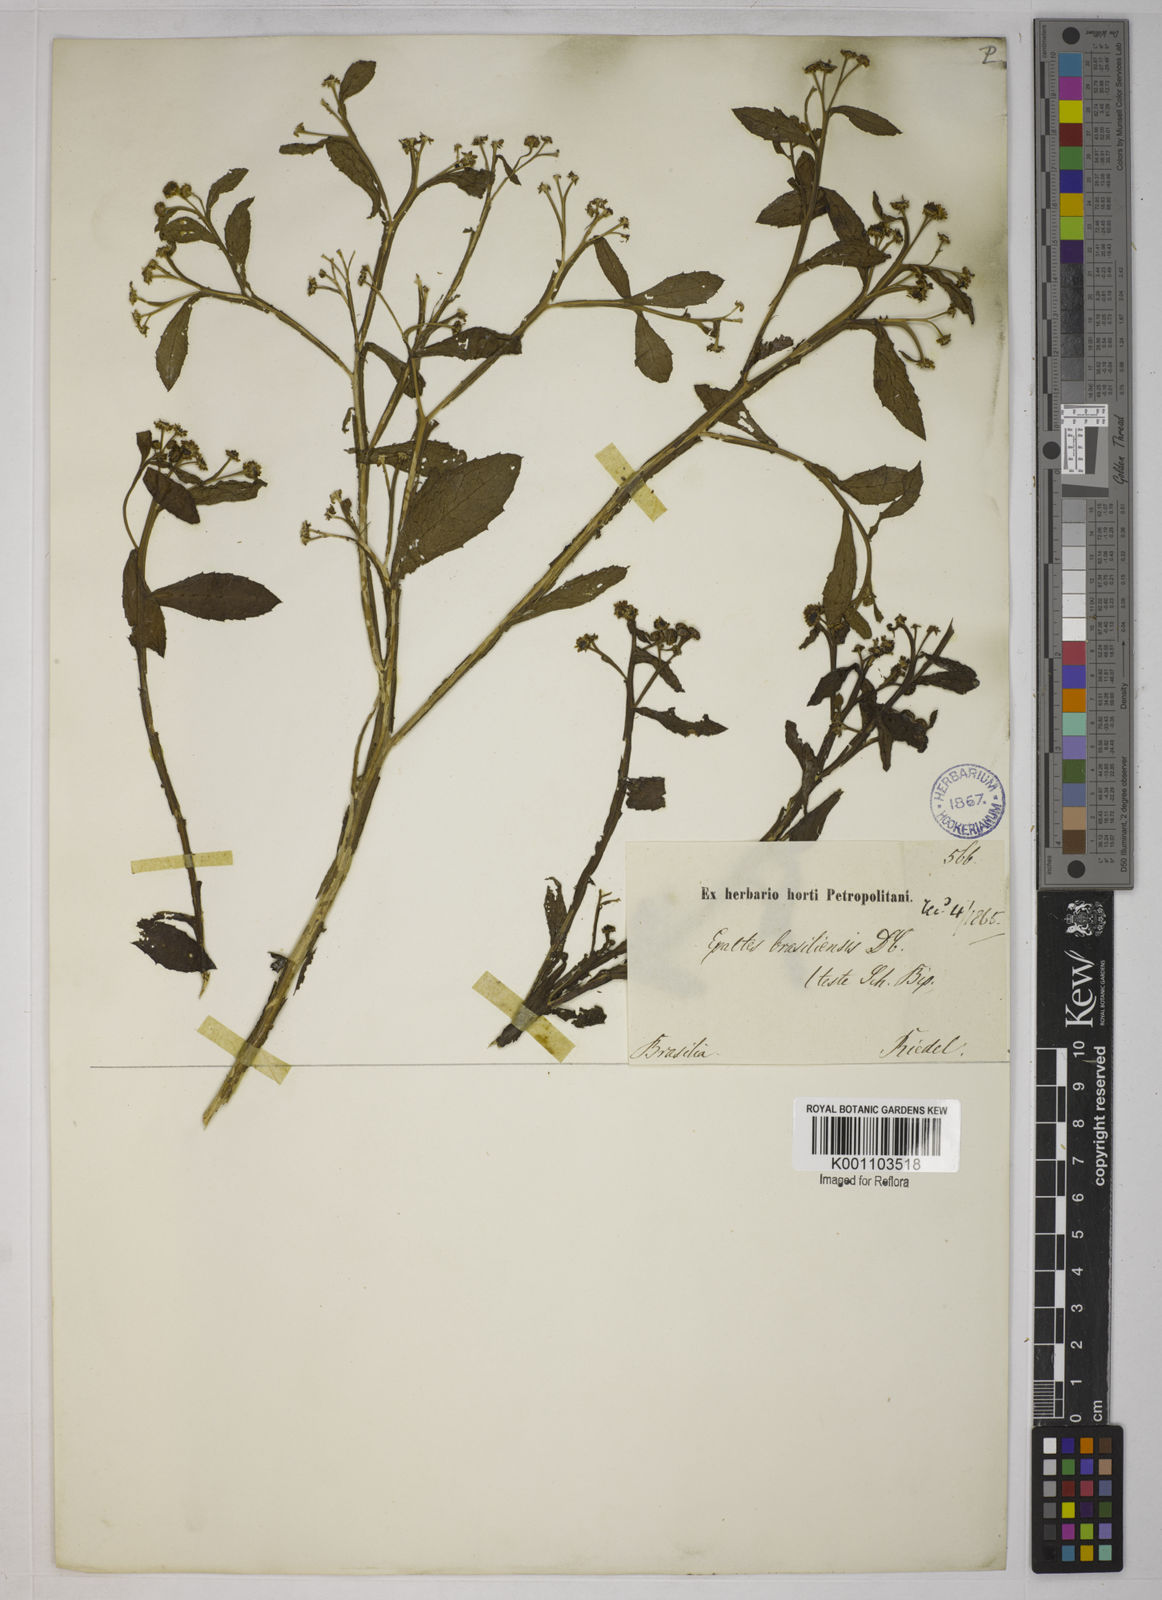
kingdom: Plantae
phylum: Tracheophyta
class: Magnoliopsida
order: Asterales
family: Asteraceae
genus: Epaltes
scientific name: Epaltes brasiliensis
